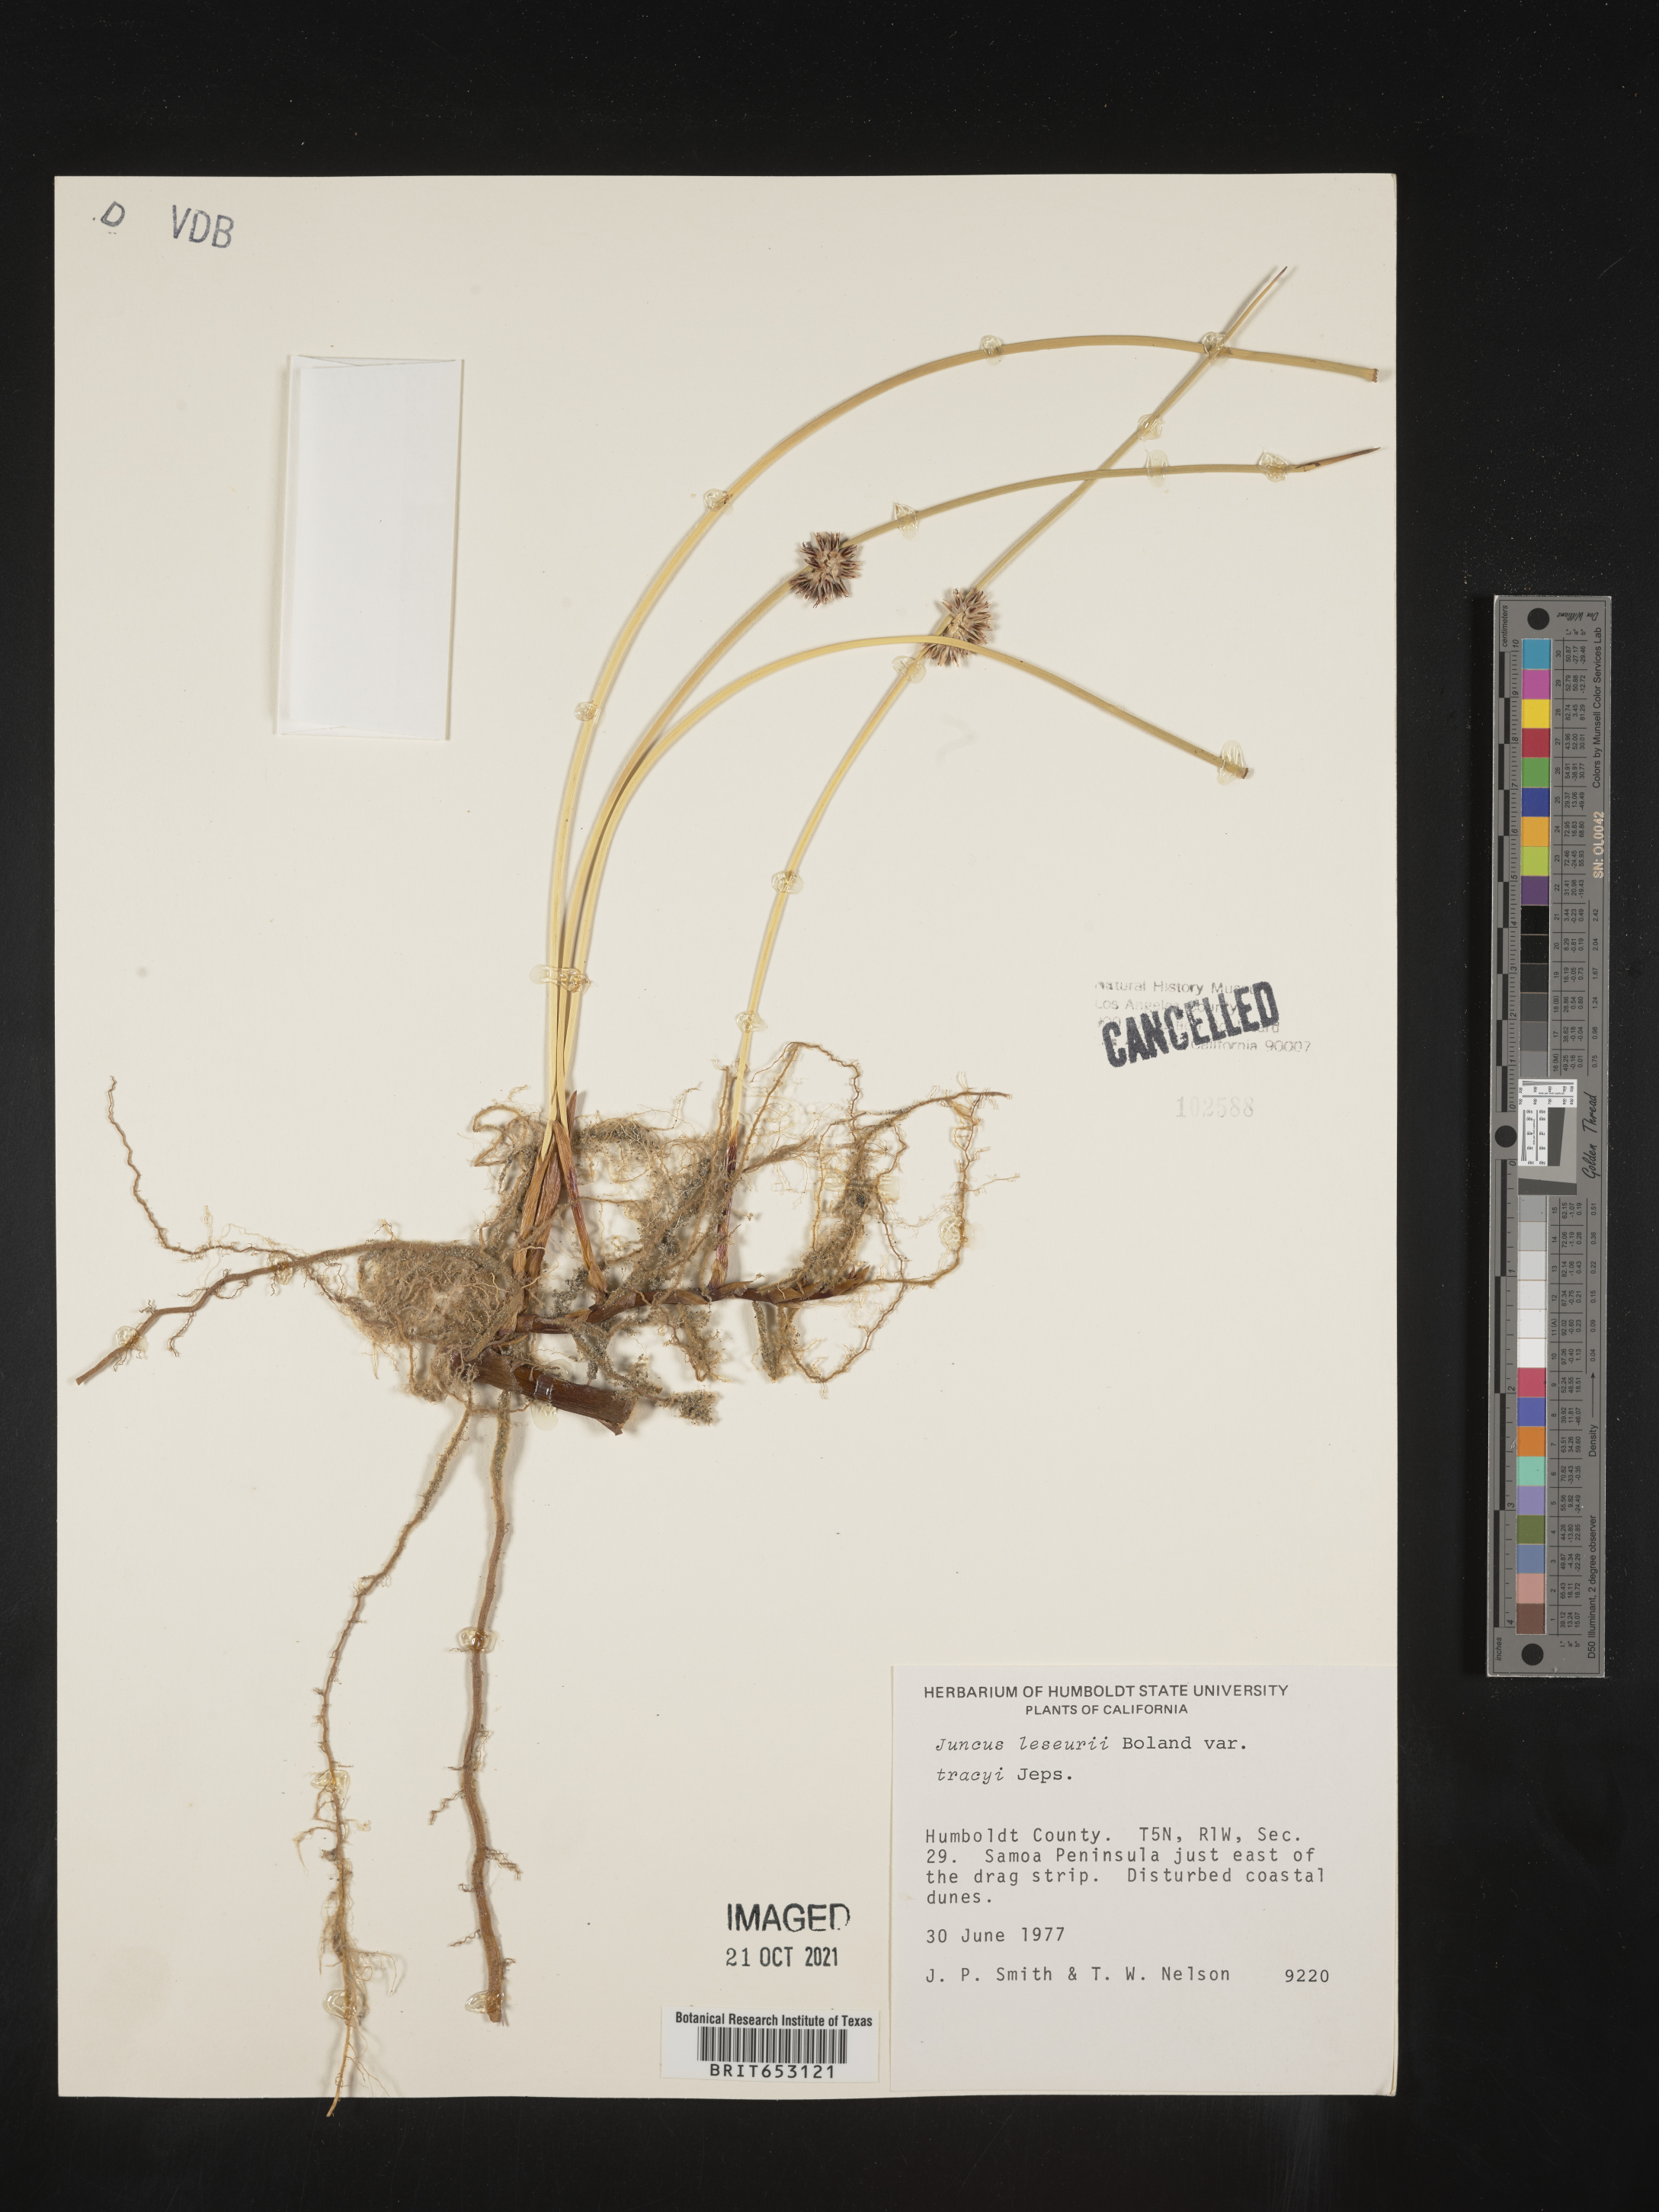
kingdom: Plantae
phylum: Tracheophyta
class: Liliopsida
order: Poales
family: Juncaceae
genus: Juncus
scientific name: Juncus lesueurii
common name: Lesueur's rush
